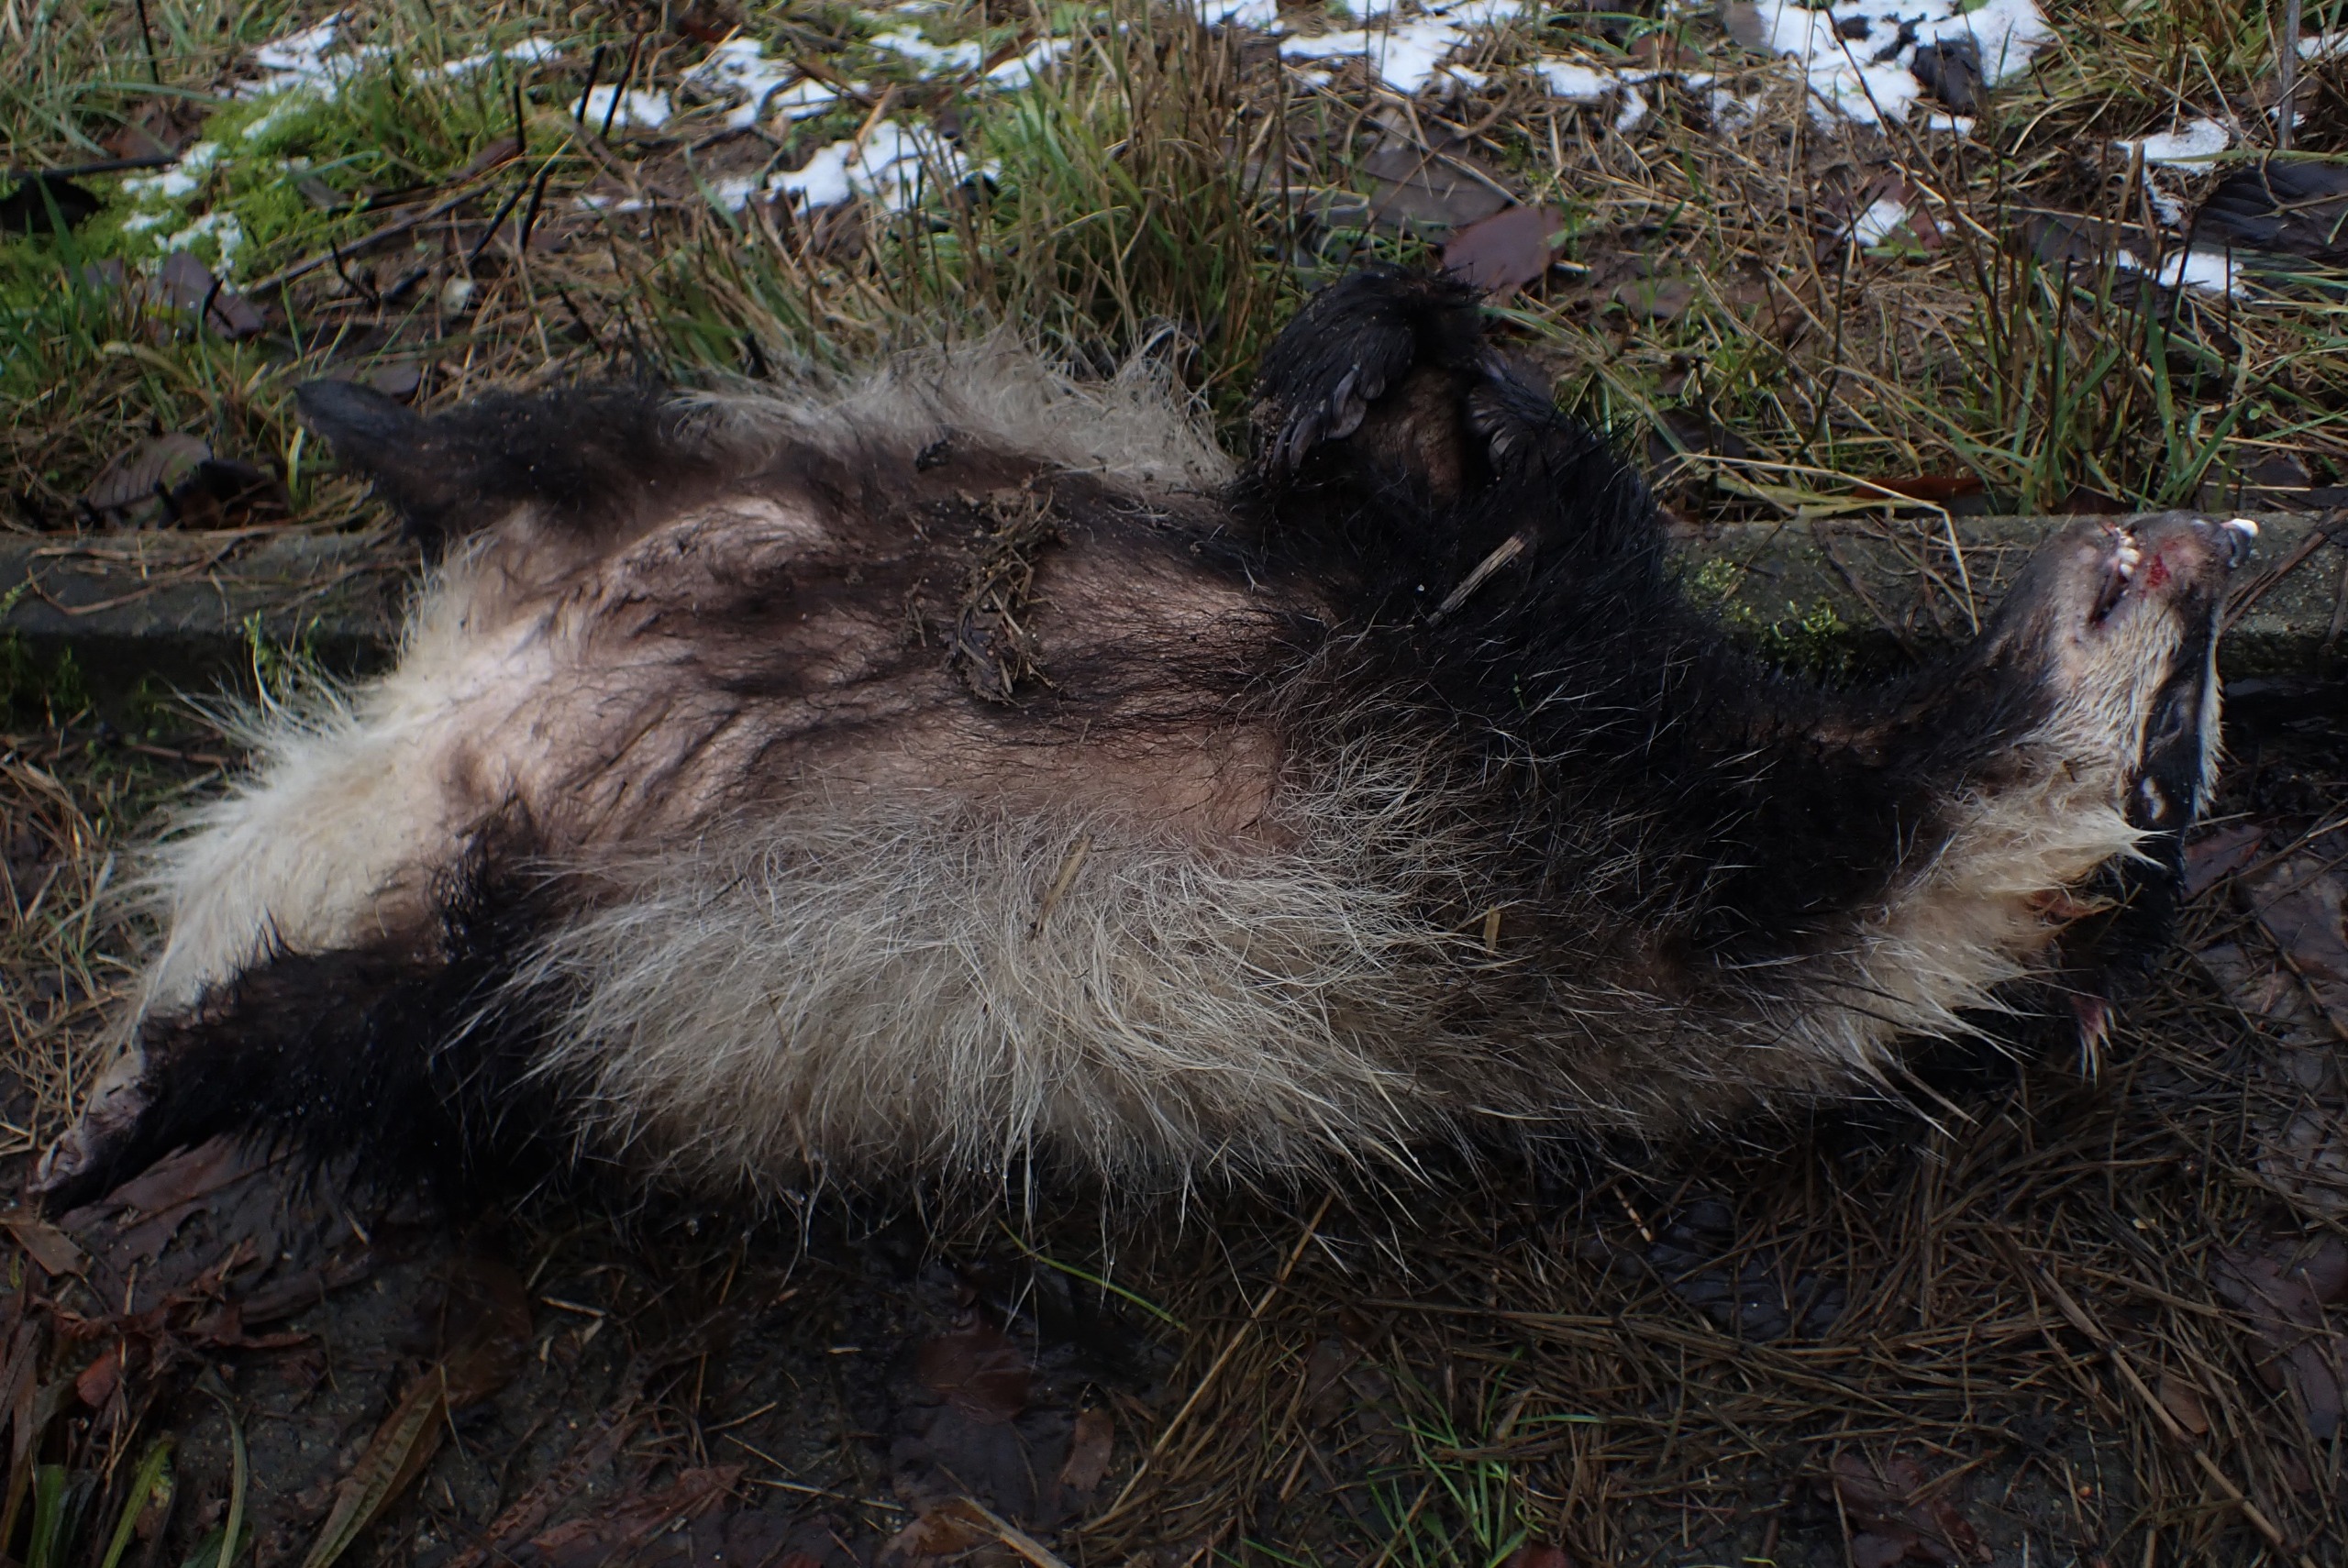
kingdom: Animalia
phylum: Chordata
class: Mammalia
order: Carnivora
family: Mustelidae
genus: Meles
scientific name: Meles meles
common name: Grævling
